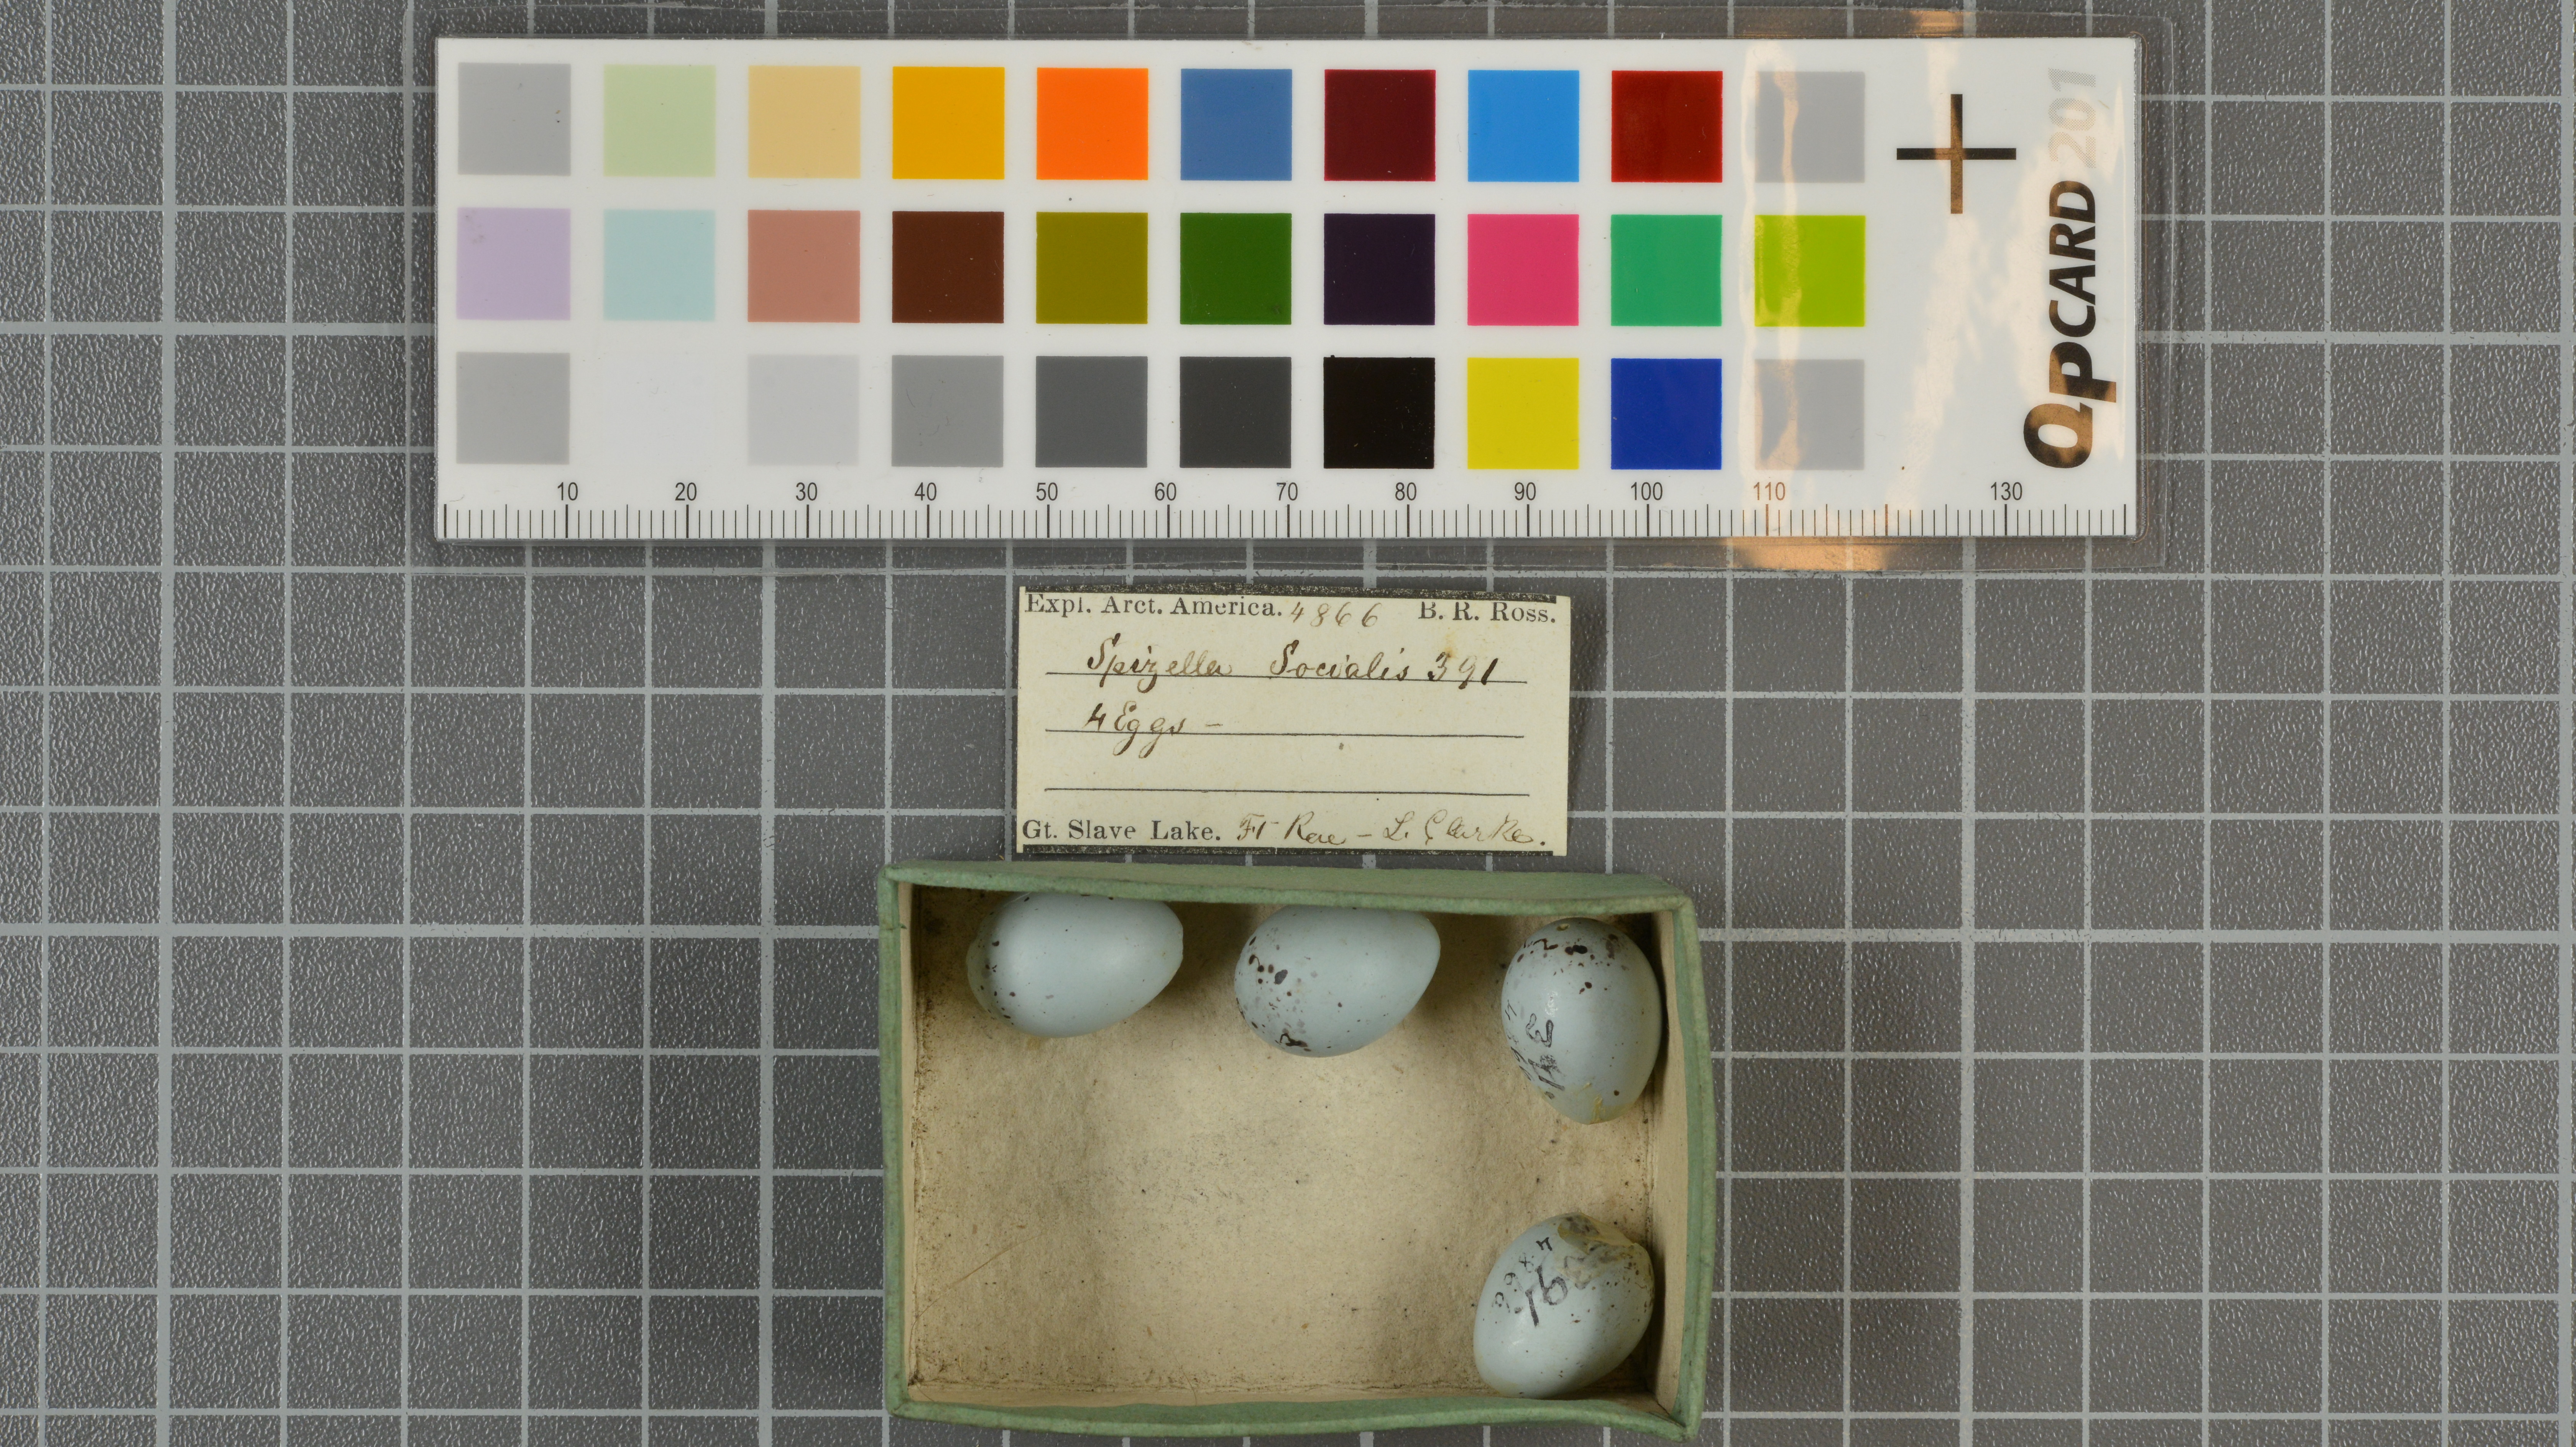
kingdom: Animalia
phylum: Chordata
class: Aves
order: Passeriformes
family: Passerellidae
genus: Spizella
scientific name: Spizella passerina
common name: Chipping sparrow
